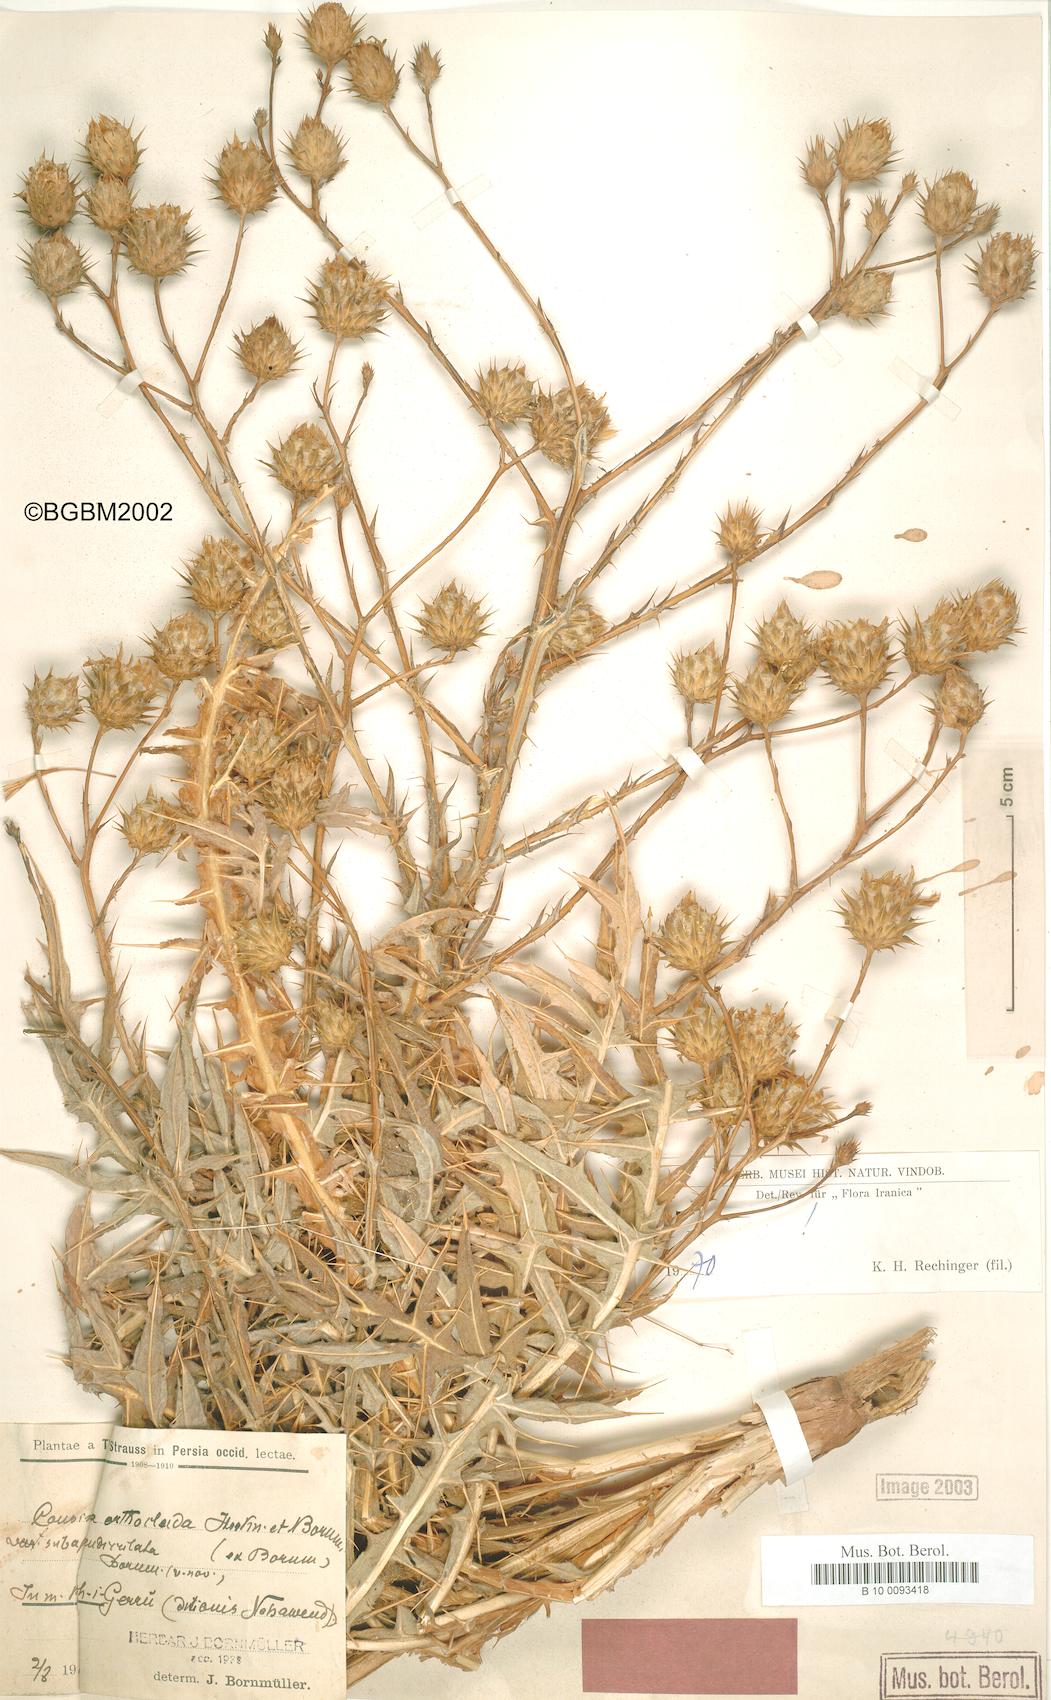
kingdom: Plantae
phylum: Tracheophyta
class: Magnoliopsida
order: Asterales
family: Asteraceae
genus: Cousinia
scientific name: Cousinia orthoclada
